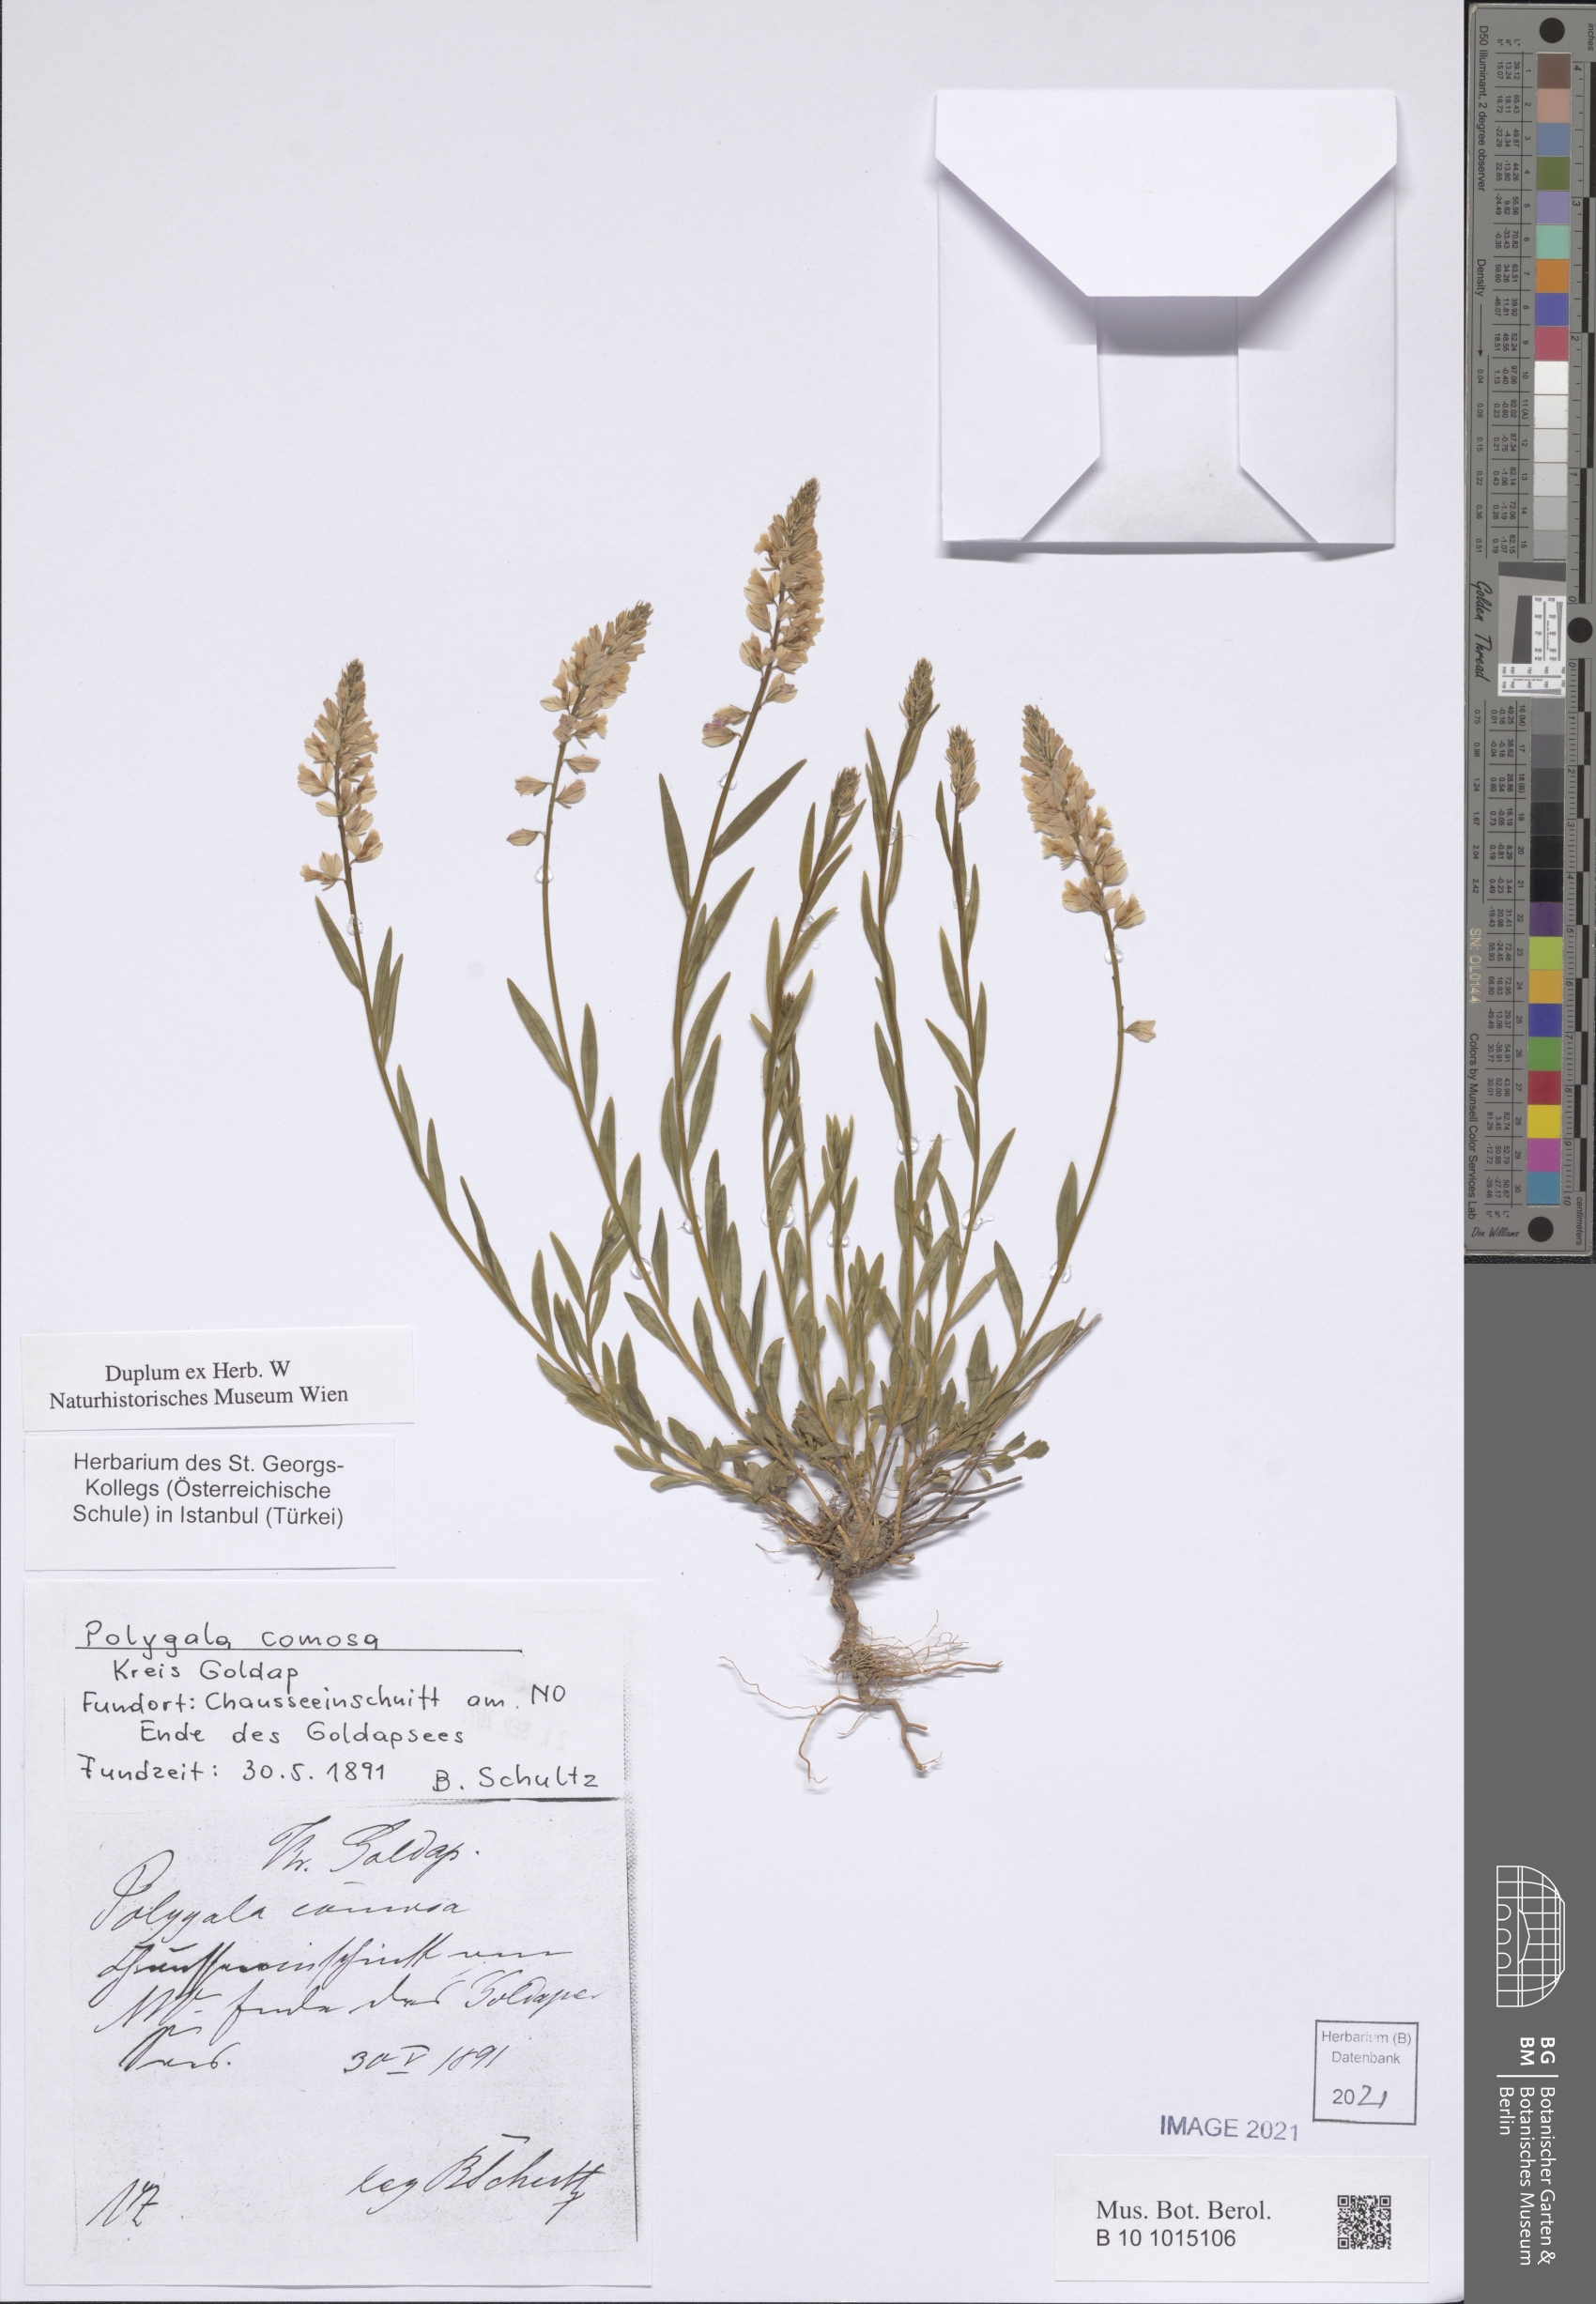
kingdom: Plantae
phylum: Tracheophyta
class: Magnoliopsida
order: Fabales
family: Polygalaceae
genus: Polygala
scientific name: Polygala comosa
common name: Tufted milkwort
